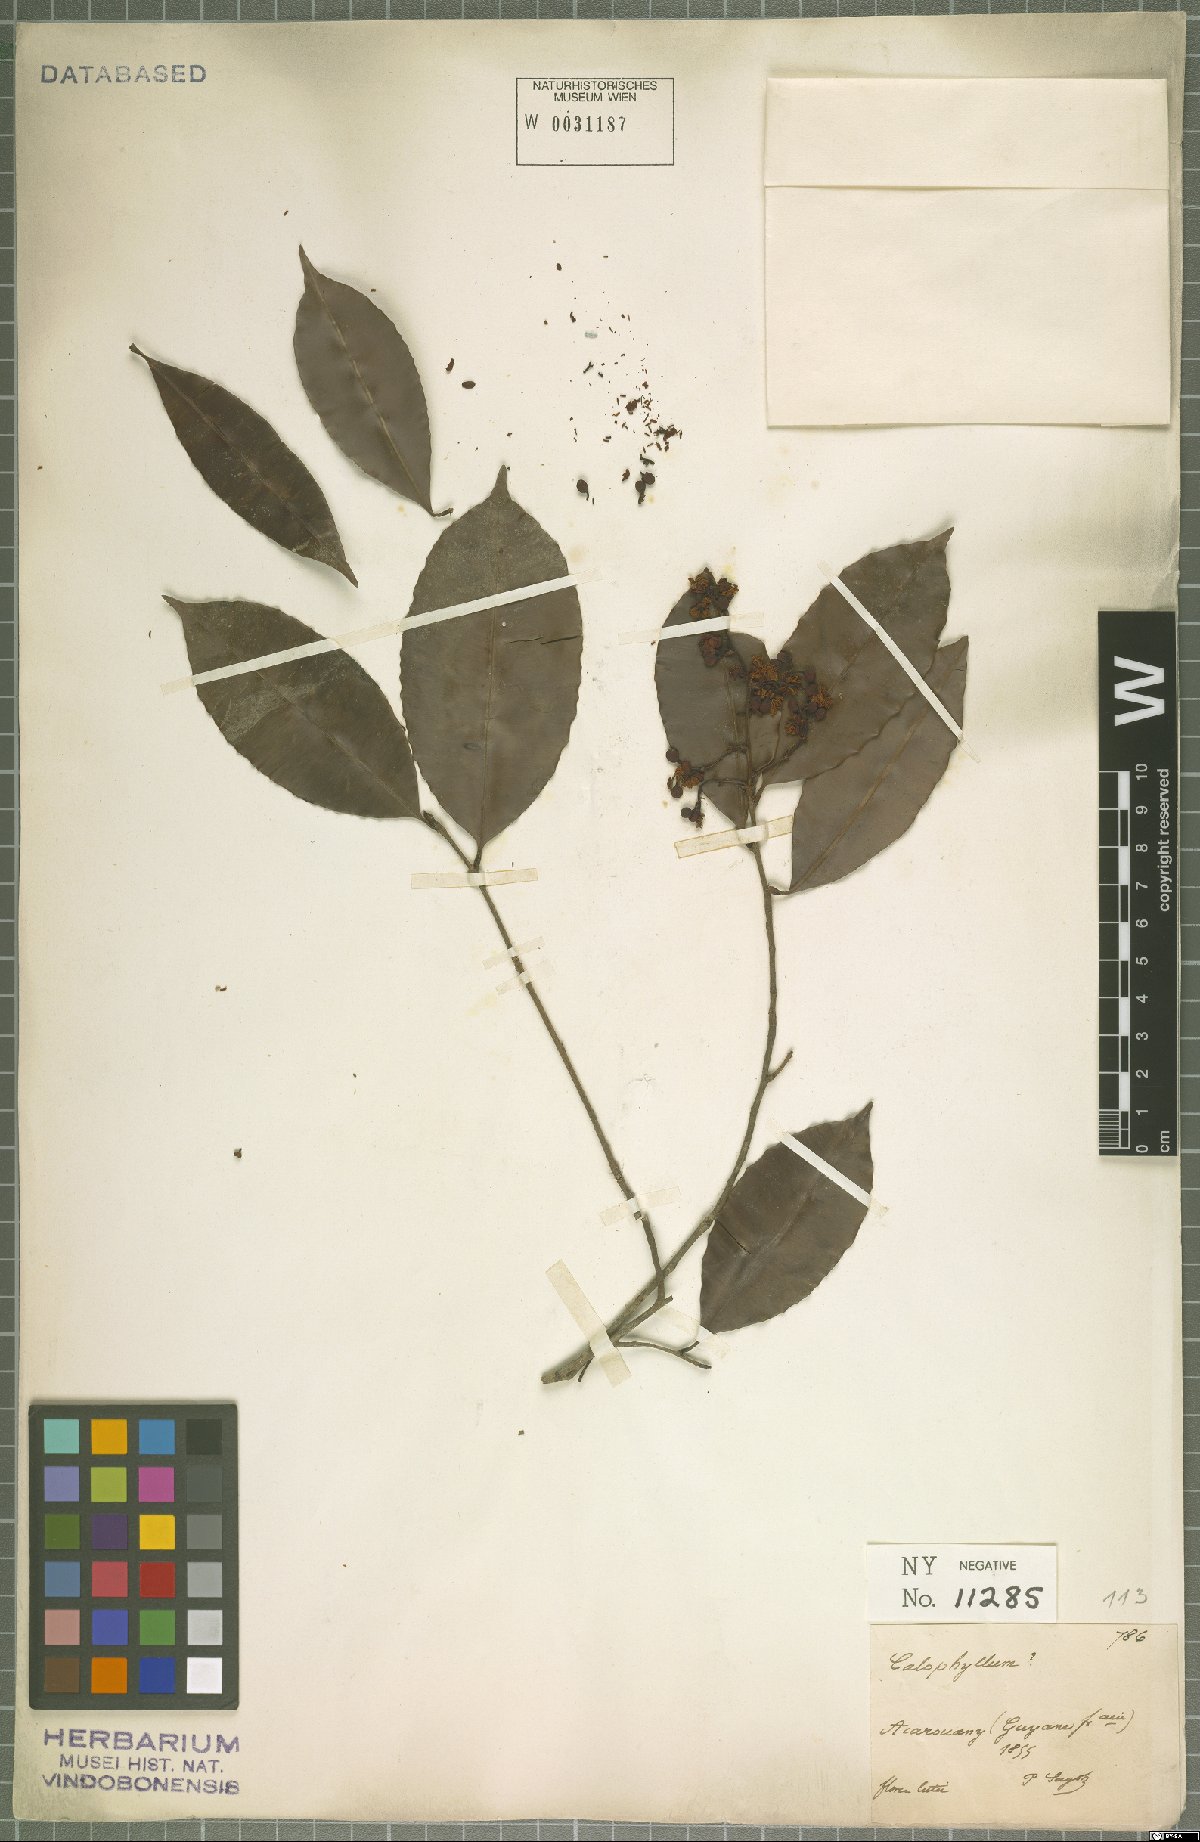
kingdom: Plantae
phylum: Tracheophyta
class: Magnoliopsida
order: Malpighiales
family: Calophyllaceae
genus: Calophyllum
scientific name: Calophyllum
